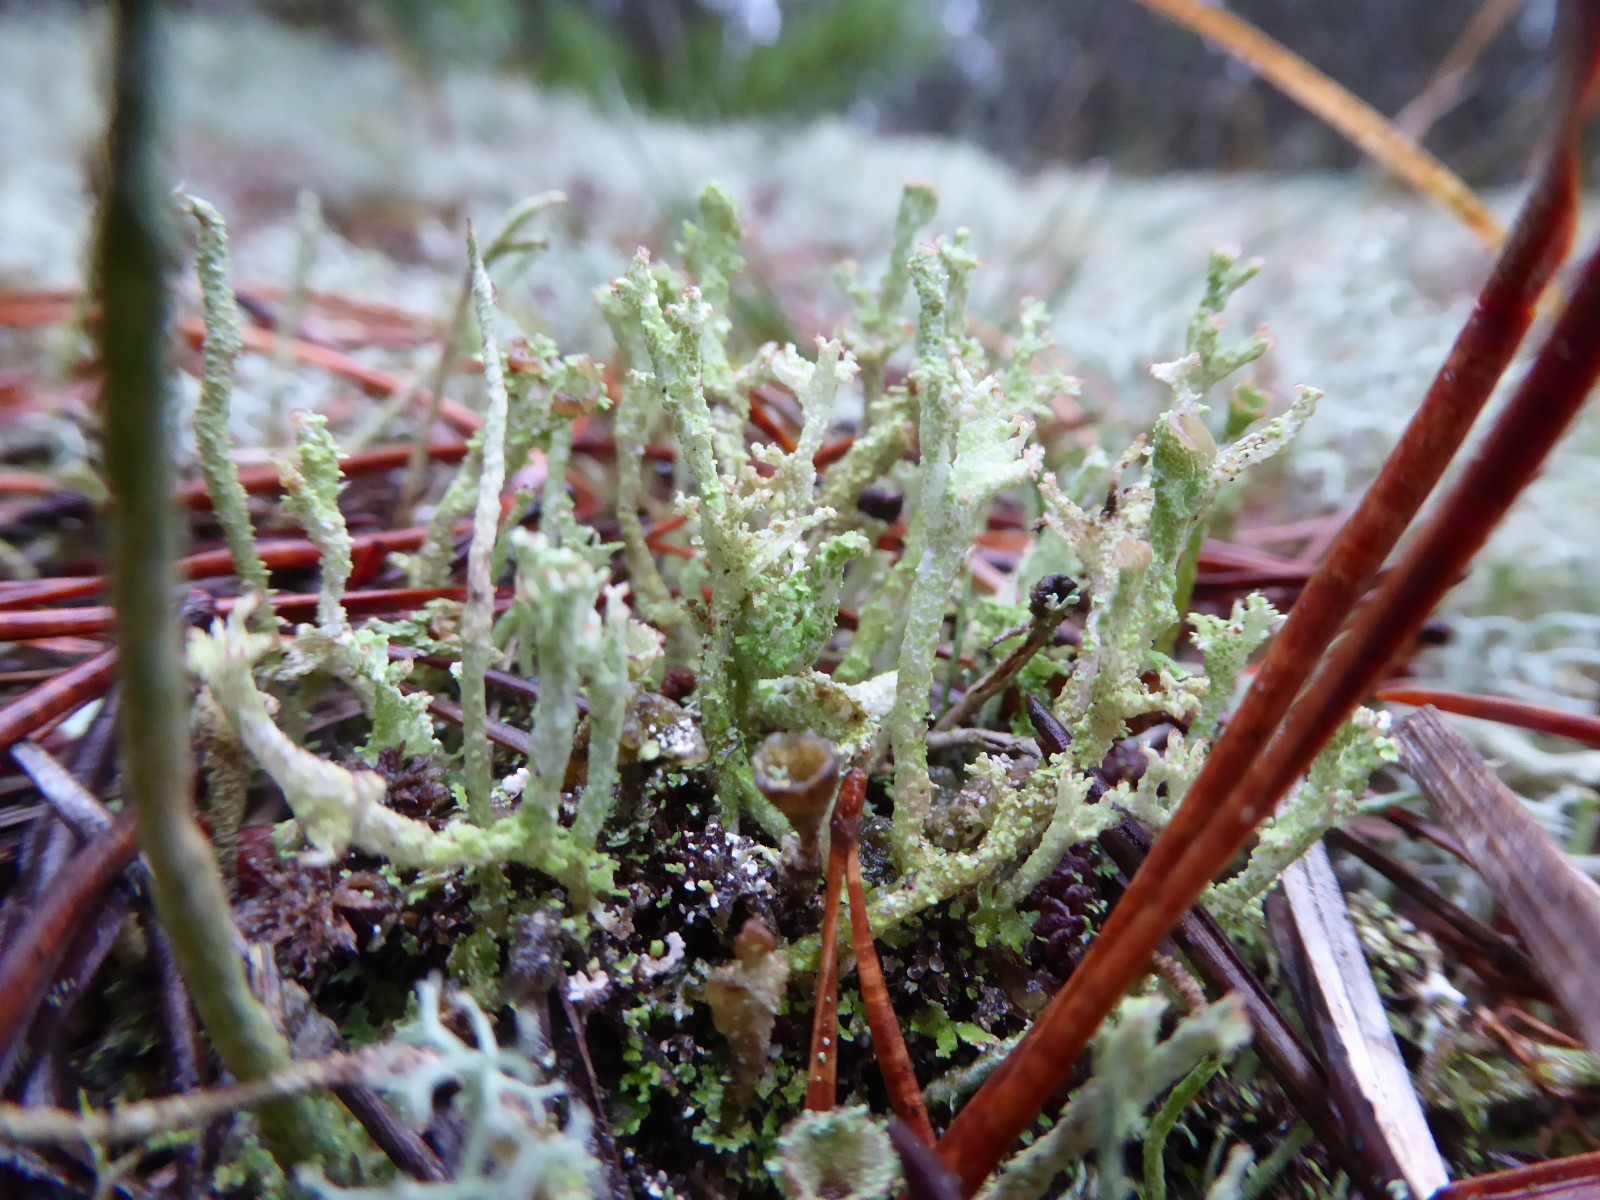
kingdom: Fungi
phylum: Ascomycota
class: Lecanoromycetes
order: Lecanorales
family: Cladoniaceae
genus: Cladonia
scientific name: Cladonia ramulosa
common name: kliddet bægerlav
